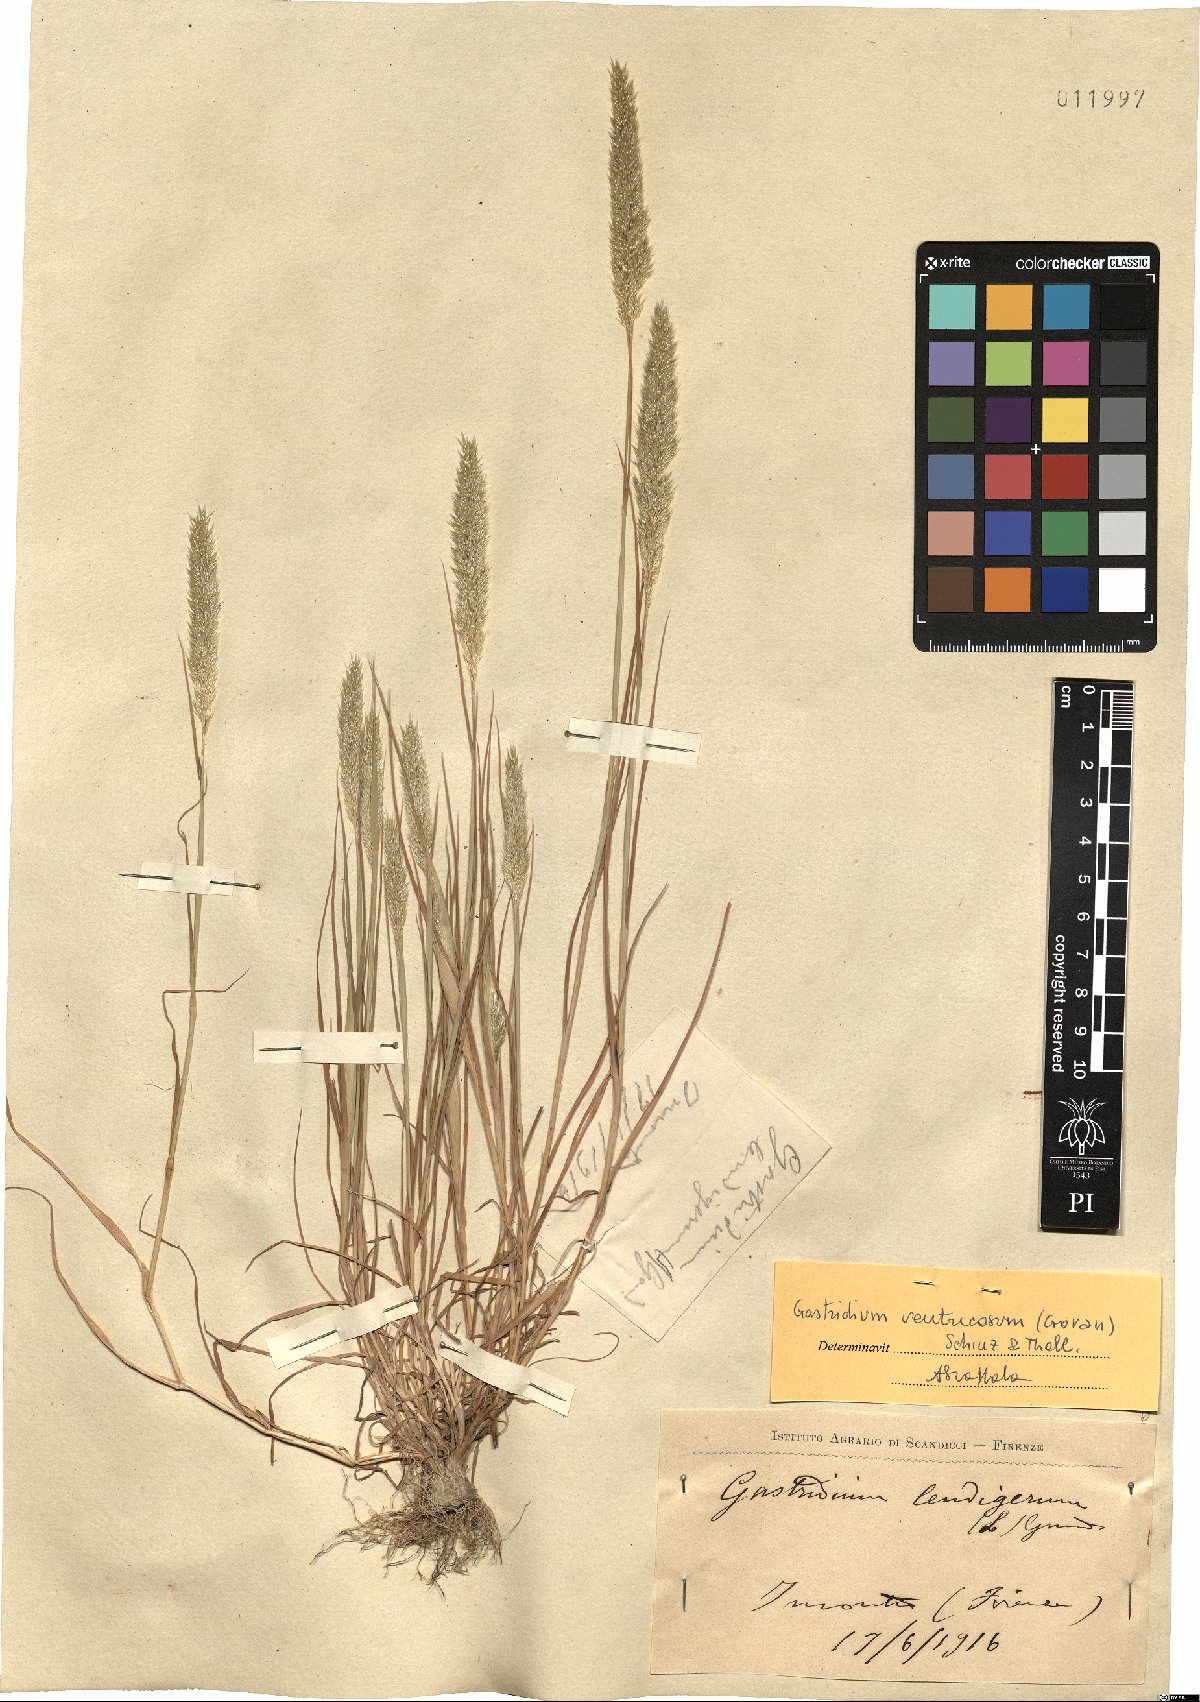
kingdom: Plantae
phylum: Tracheophyta
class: Liliopsida
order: Poales
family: Poaceae
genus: Gastridium
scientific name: Gastridium ventricosum
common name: Nit-grass
